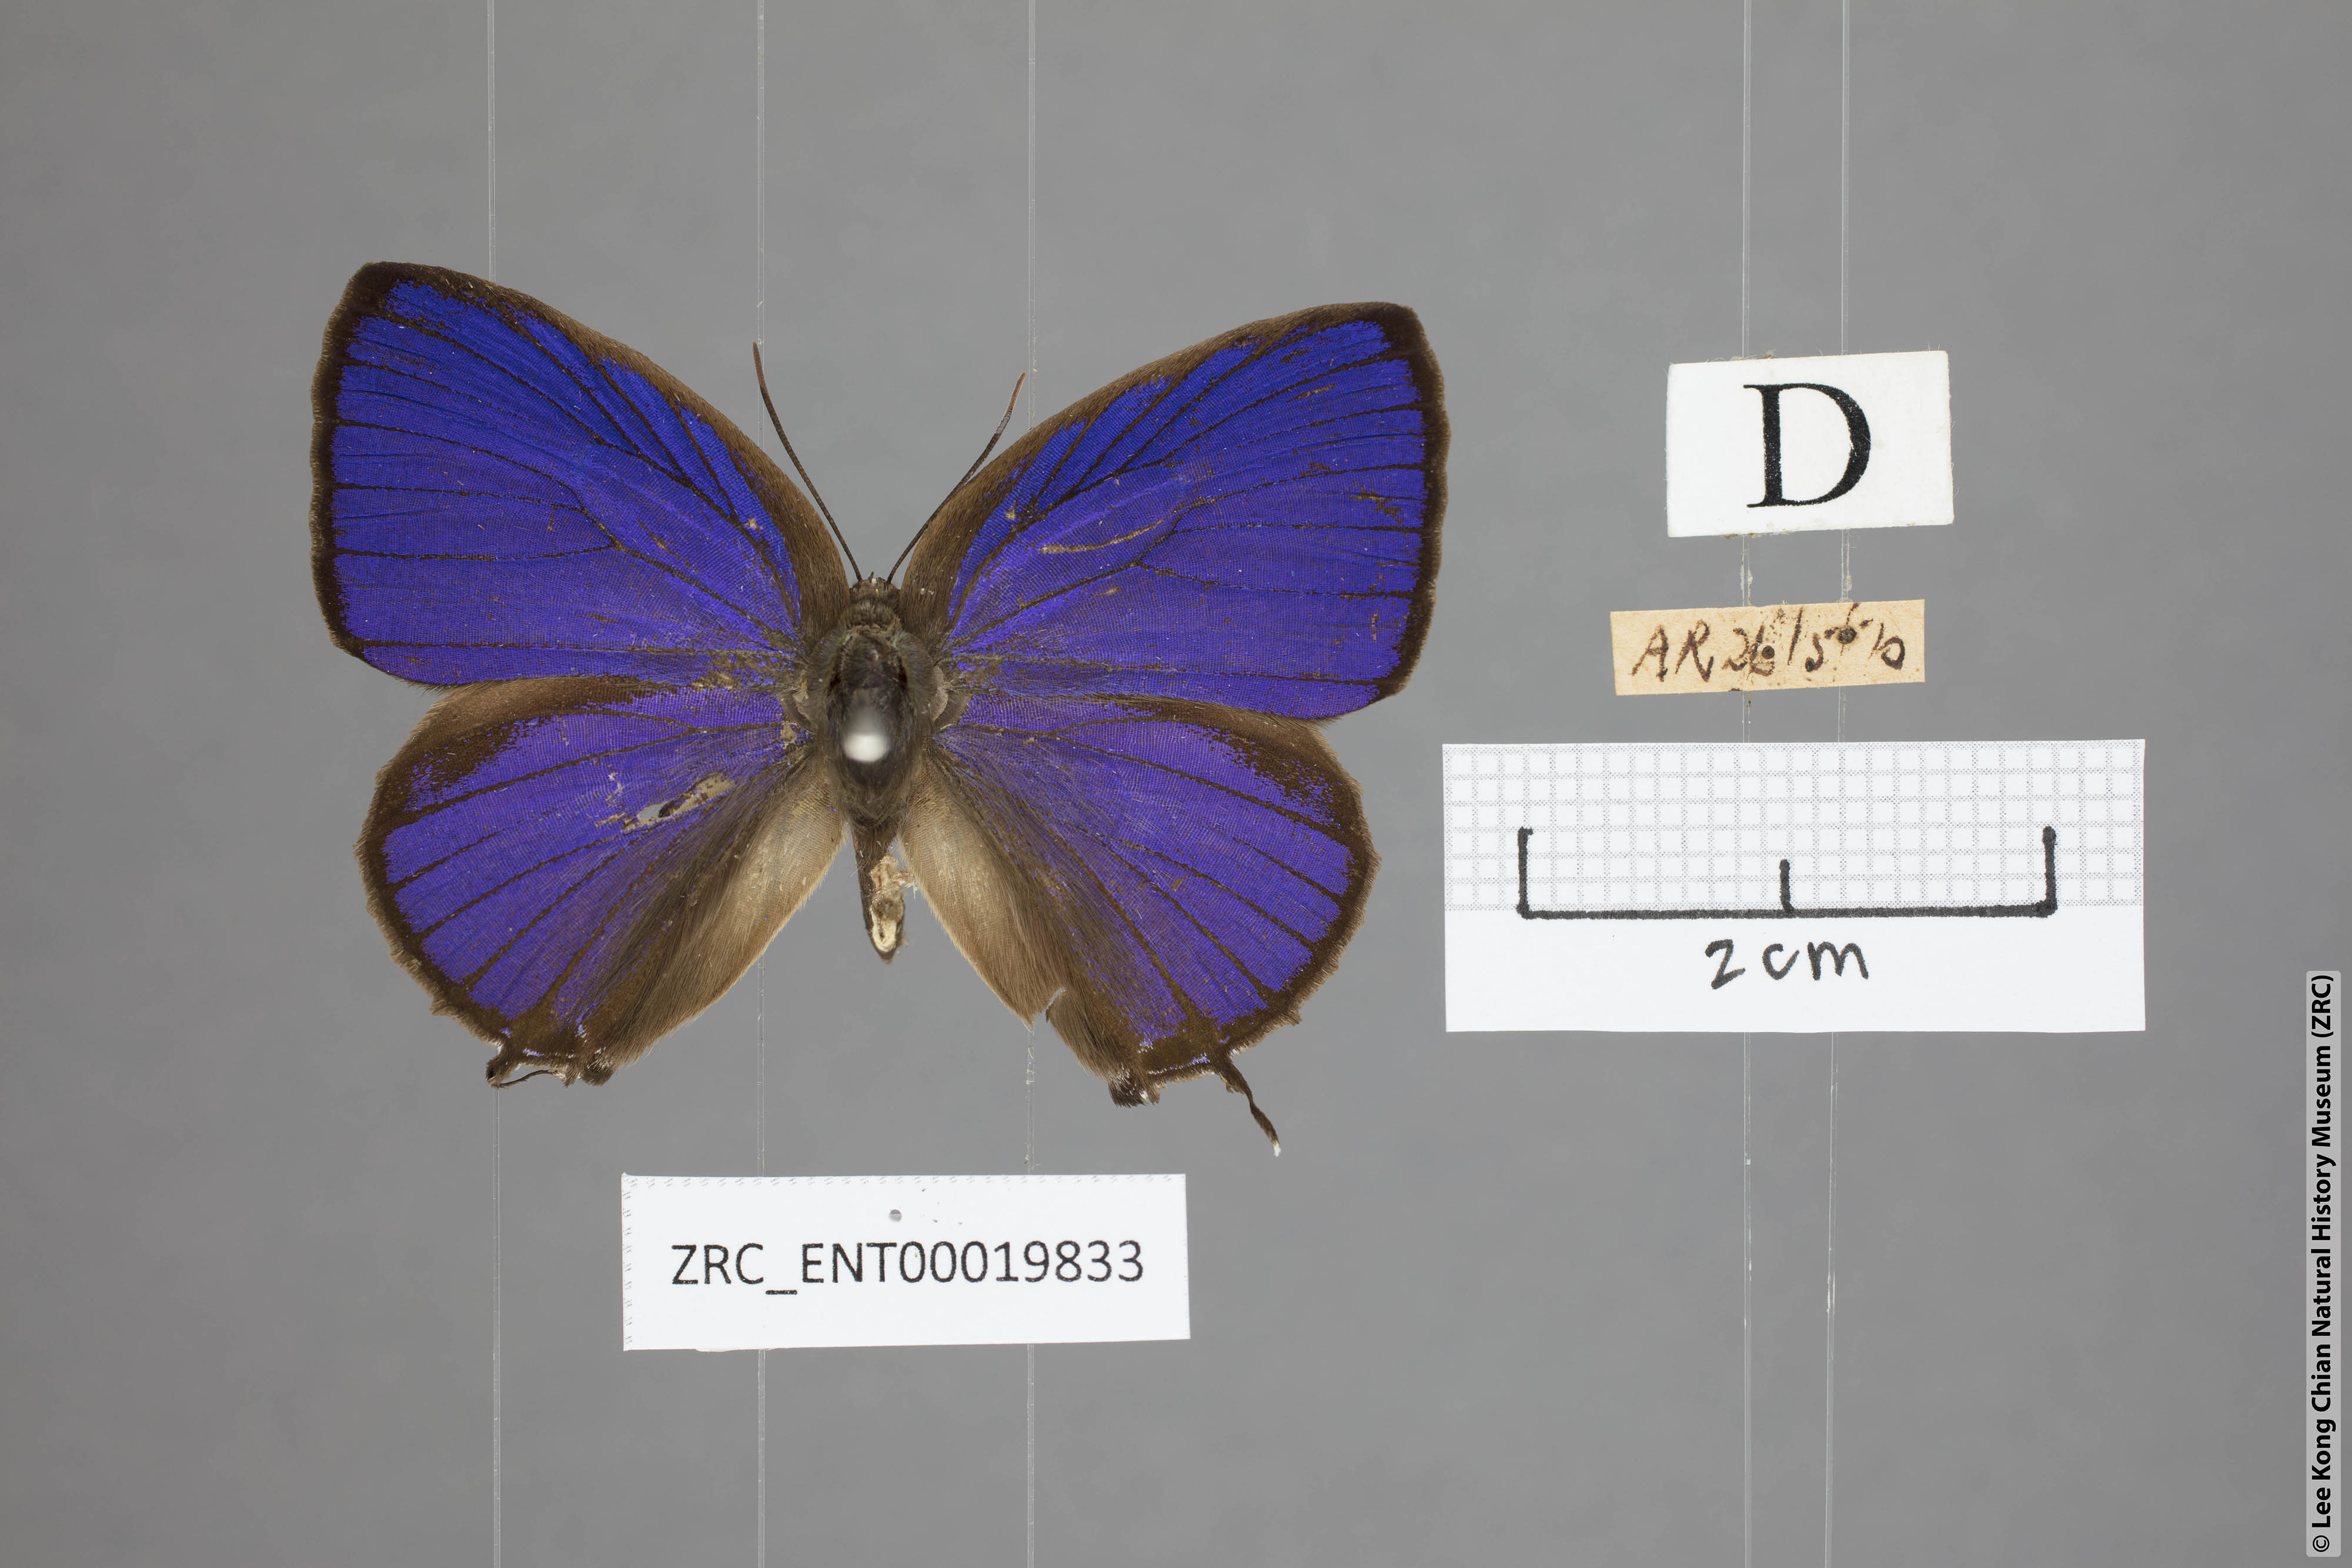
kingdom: Animalia
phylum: Arthropoda
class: Insecta
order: Lepidoptera
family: Lycaenidae
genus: Arhopala
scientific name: Arhopala
